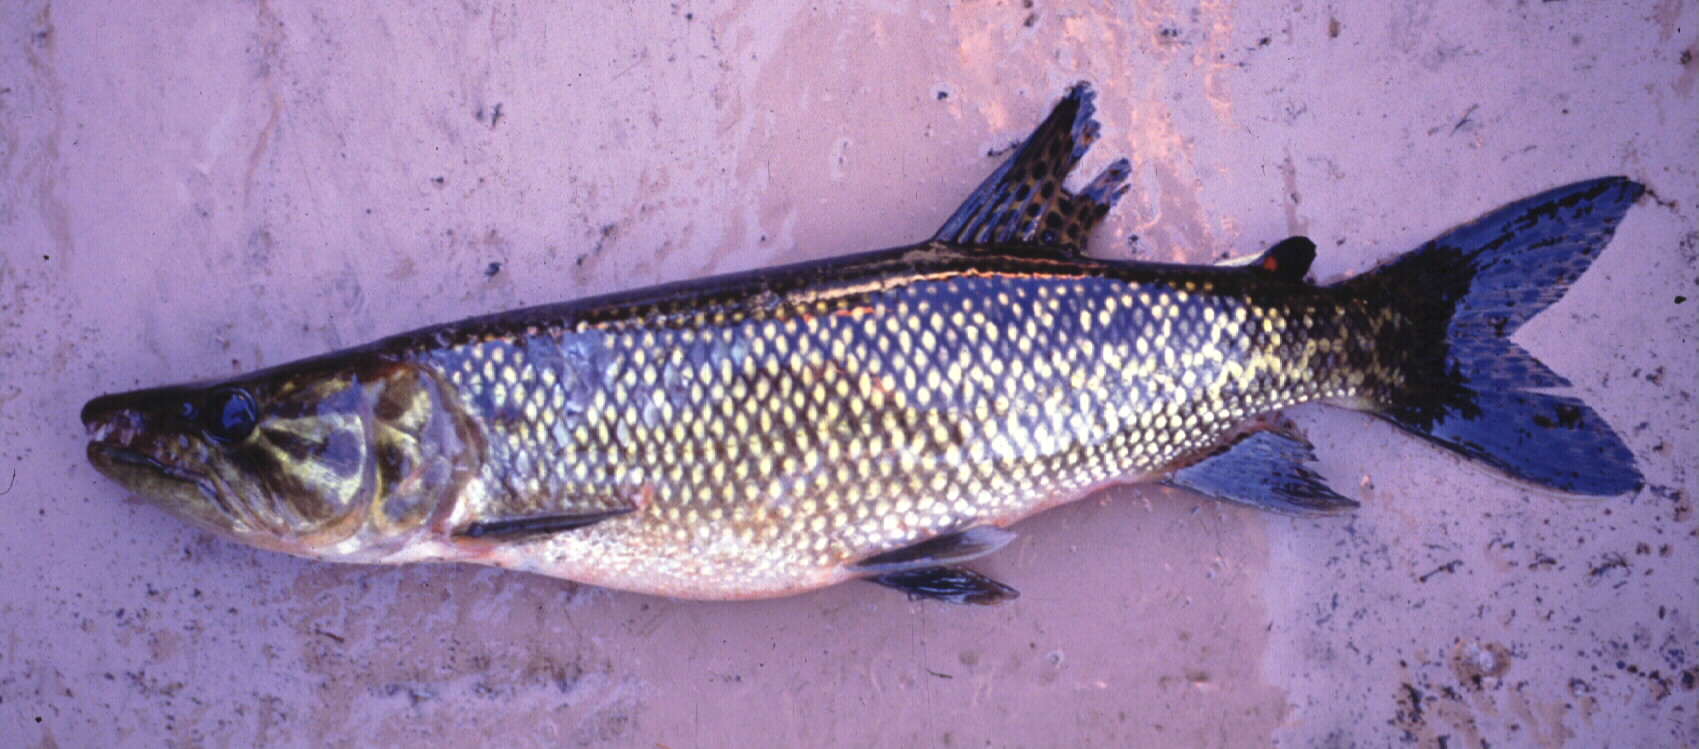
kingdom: Animalia
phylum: Chordata
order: Characiformes
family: Hepsetidae
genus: Hepsetus
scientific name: Hepsetus odoe
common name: African pike
